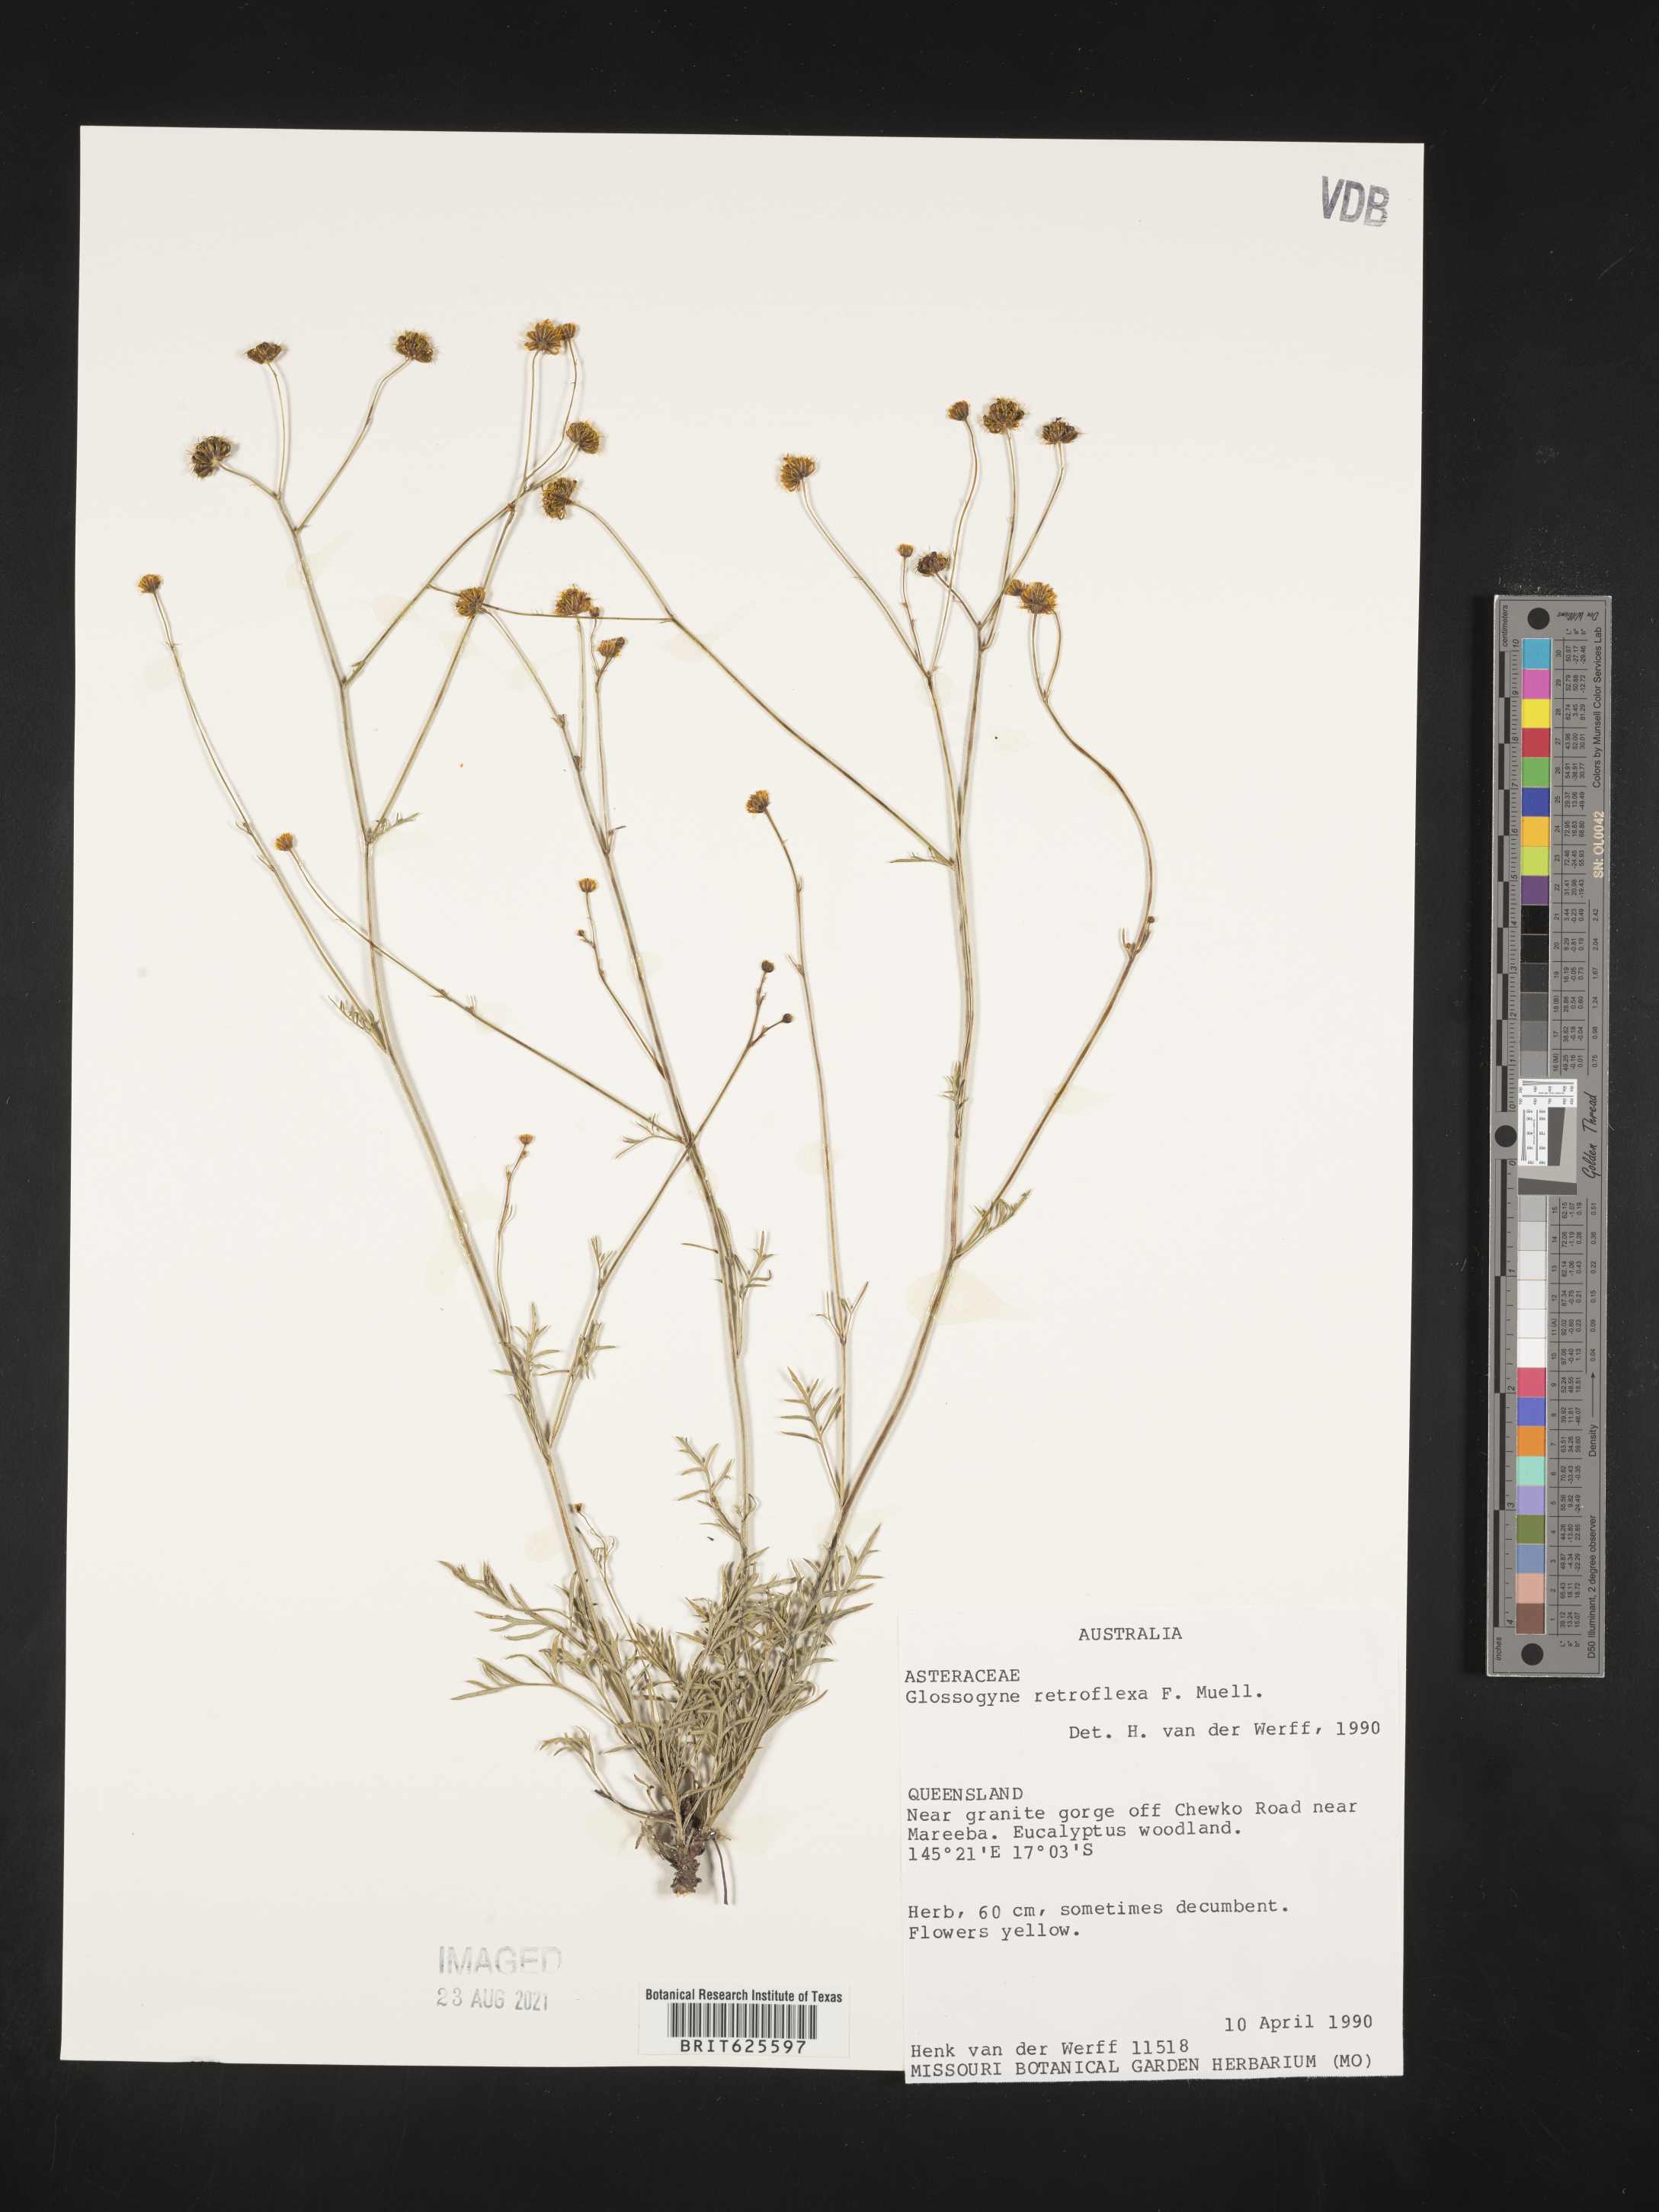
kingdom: Plantae
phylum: Tracheophyta
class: Magnoliopsida
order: Asterales
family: Asteraceae
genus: Trioncinia
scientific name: Trioncinia retroflexa
